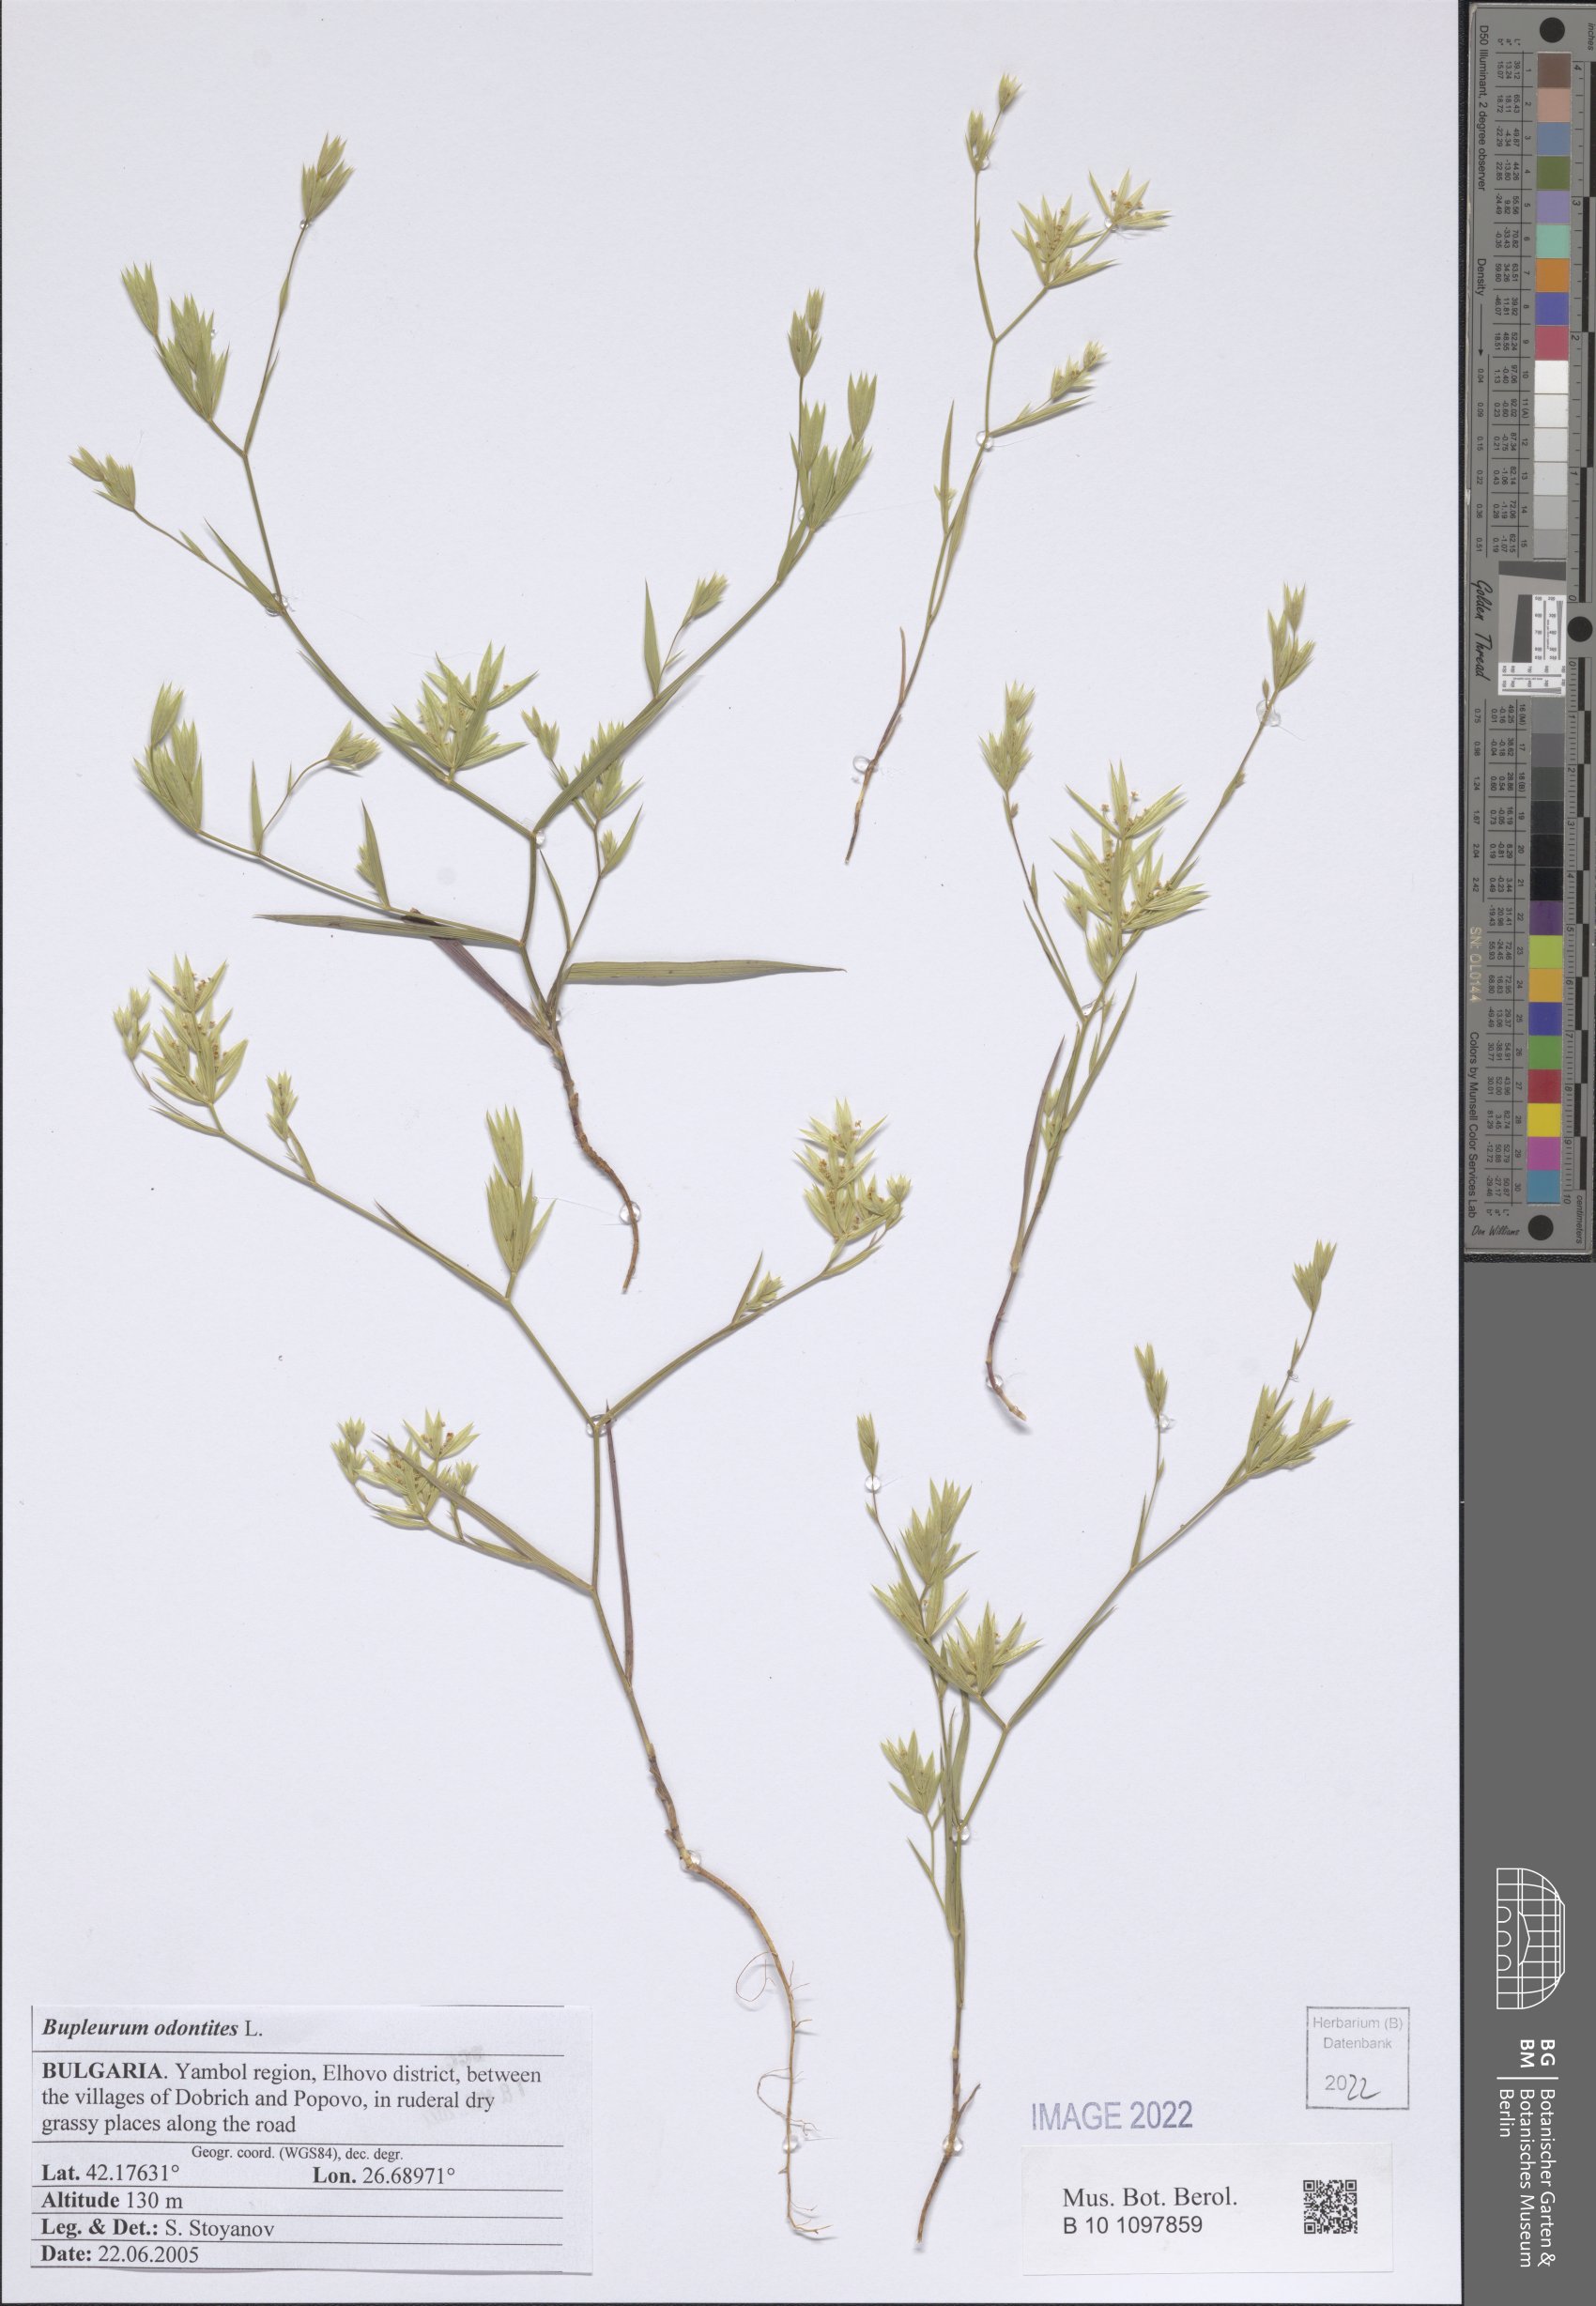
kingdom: Plantae
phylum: Tracheophyta
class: Magnoliopsida
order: Apiales
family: Apiaceae
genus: Bupleurum
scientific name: Bupleurum odontites
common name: Narrowleaf thorow wax
